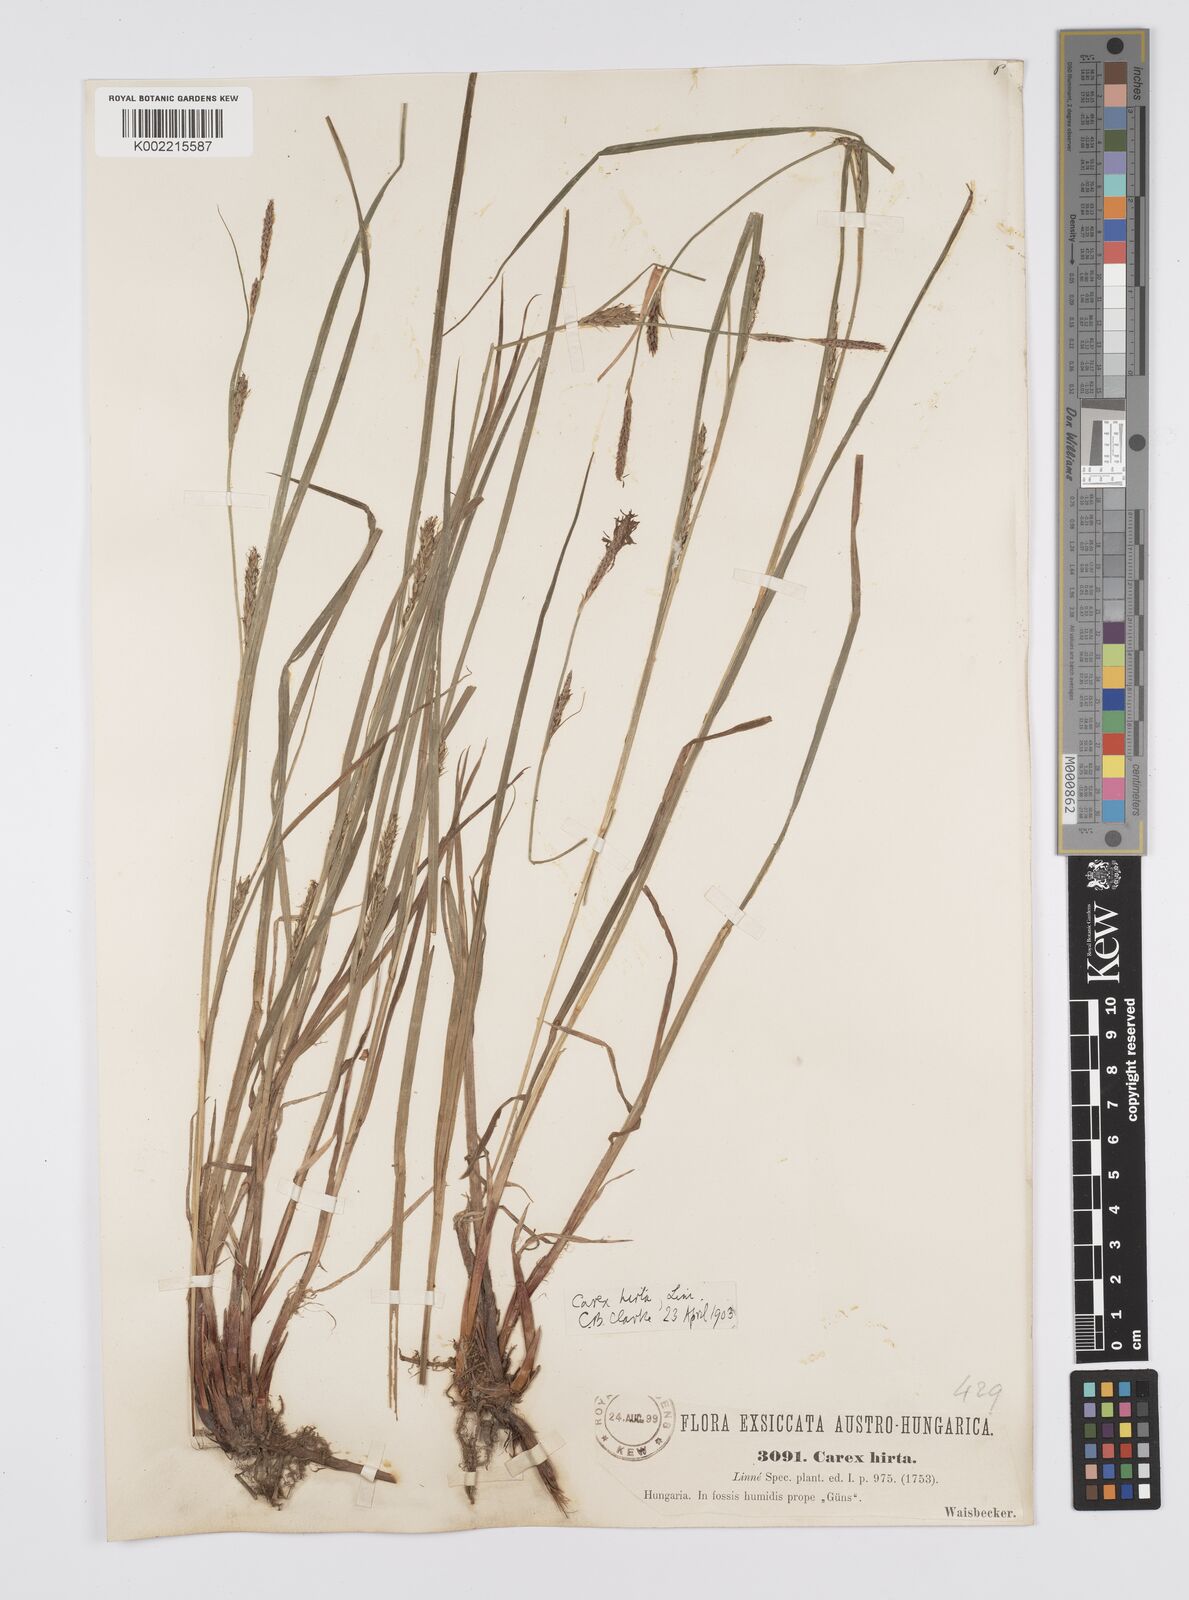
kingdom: Plantae
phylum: Tracheophyta
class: Liliopsida
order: Poales
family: Cyperaceae
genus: Carex
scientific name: Carex hirta
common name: Hairy sedge
